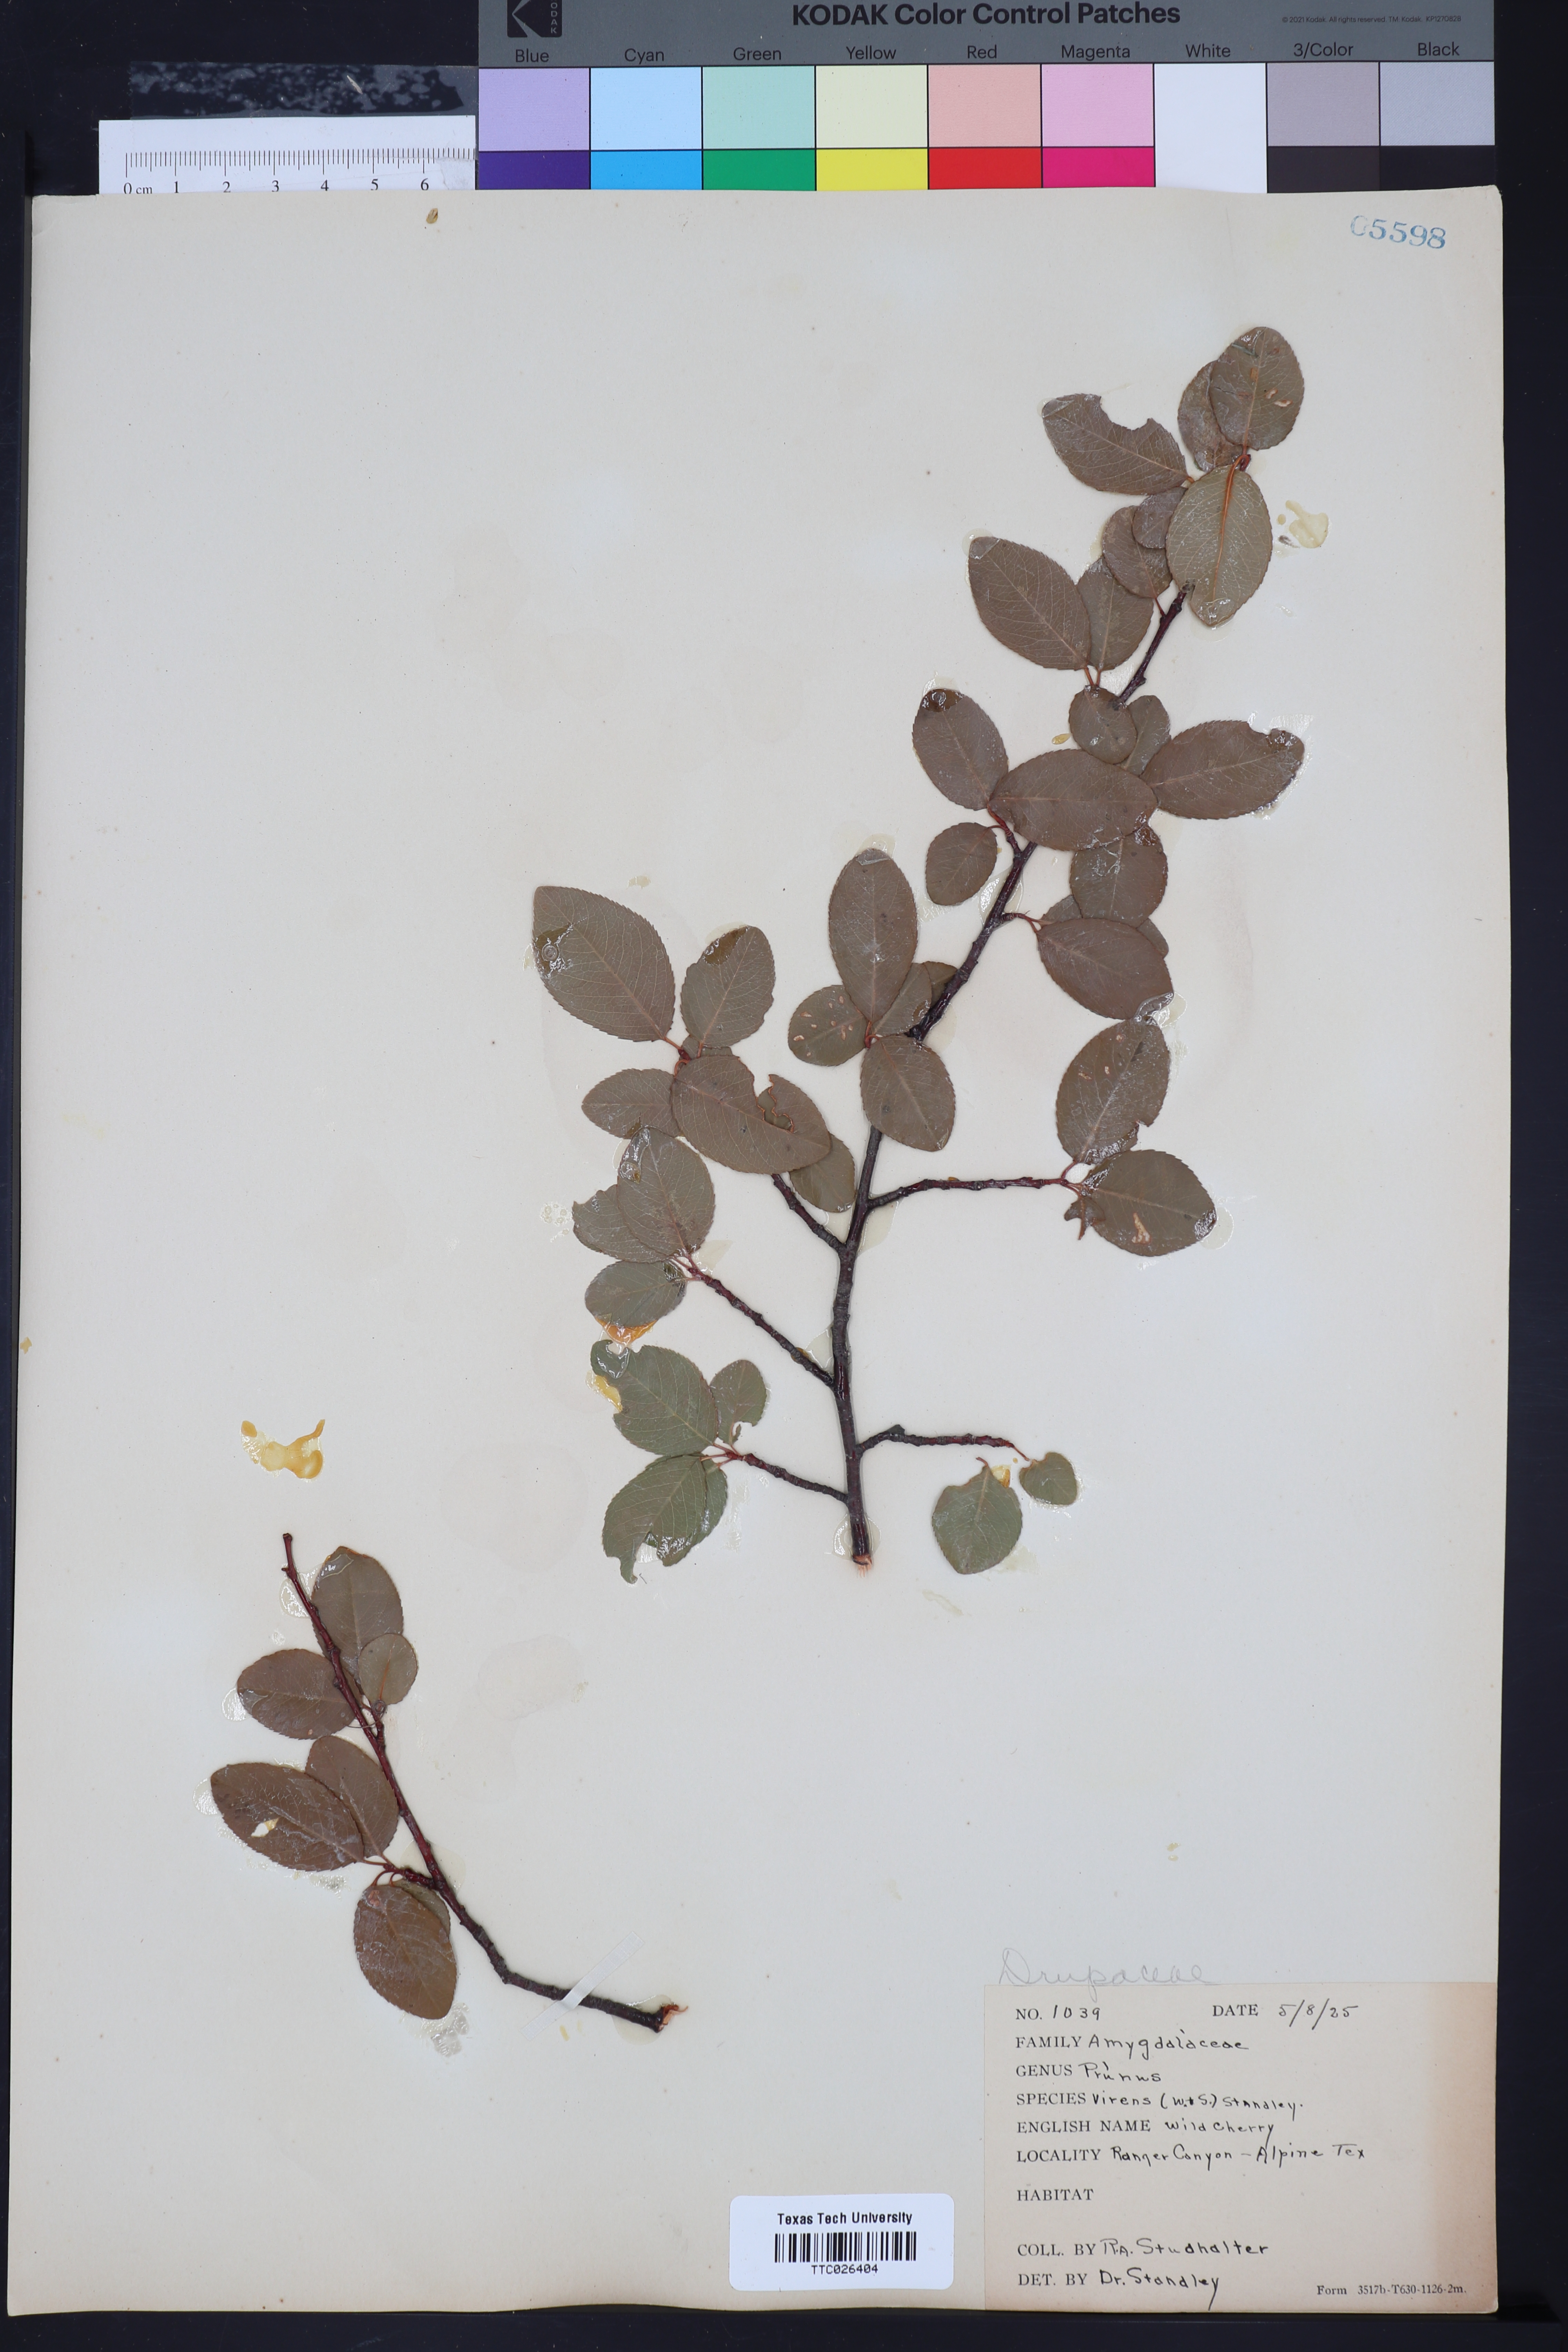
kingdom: Plantae
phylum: Tracheophyta
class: Magnoliopsida
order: Rosales
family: Rosaceae
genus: Prunus
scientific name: Prunus serotina
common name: Black cherry
